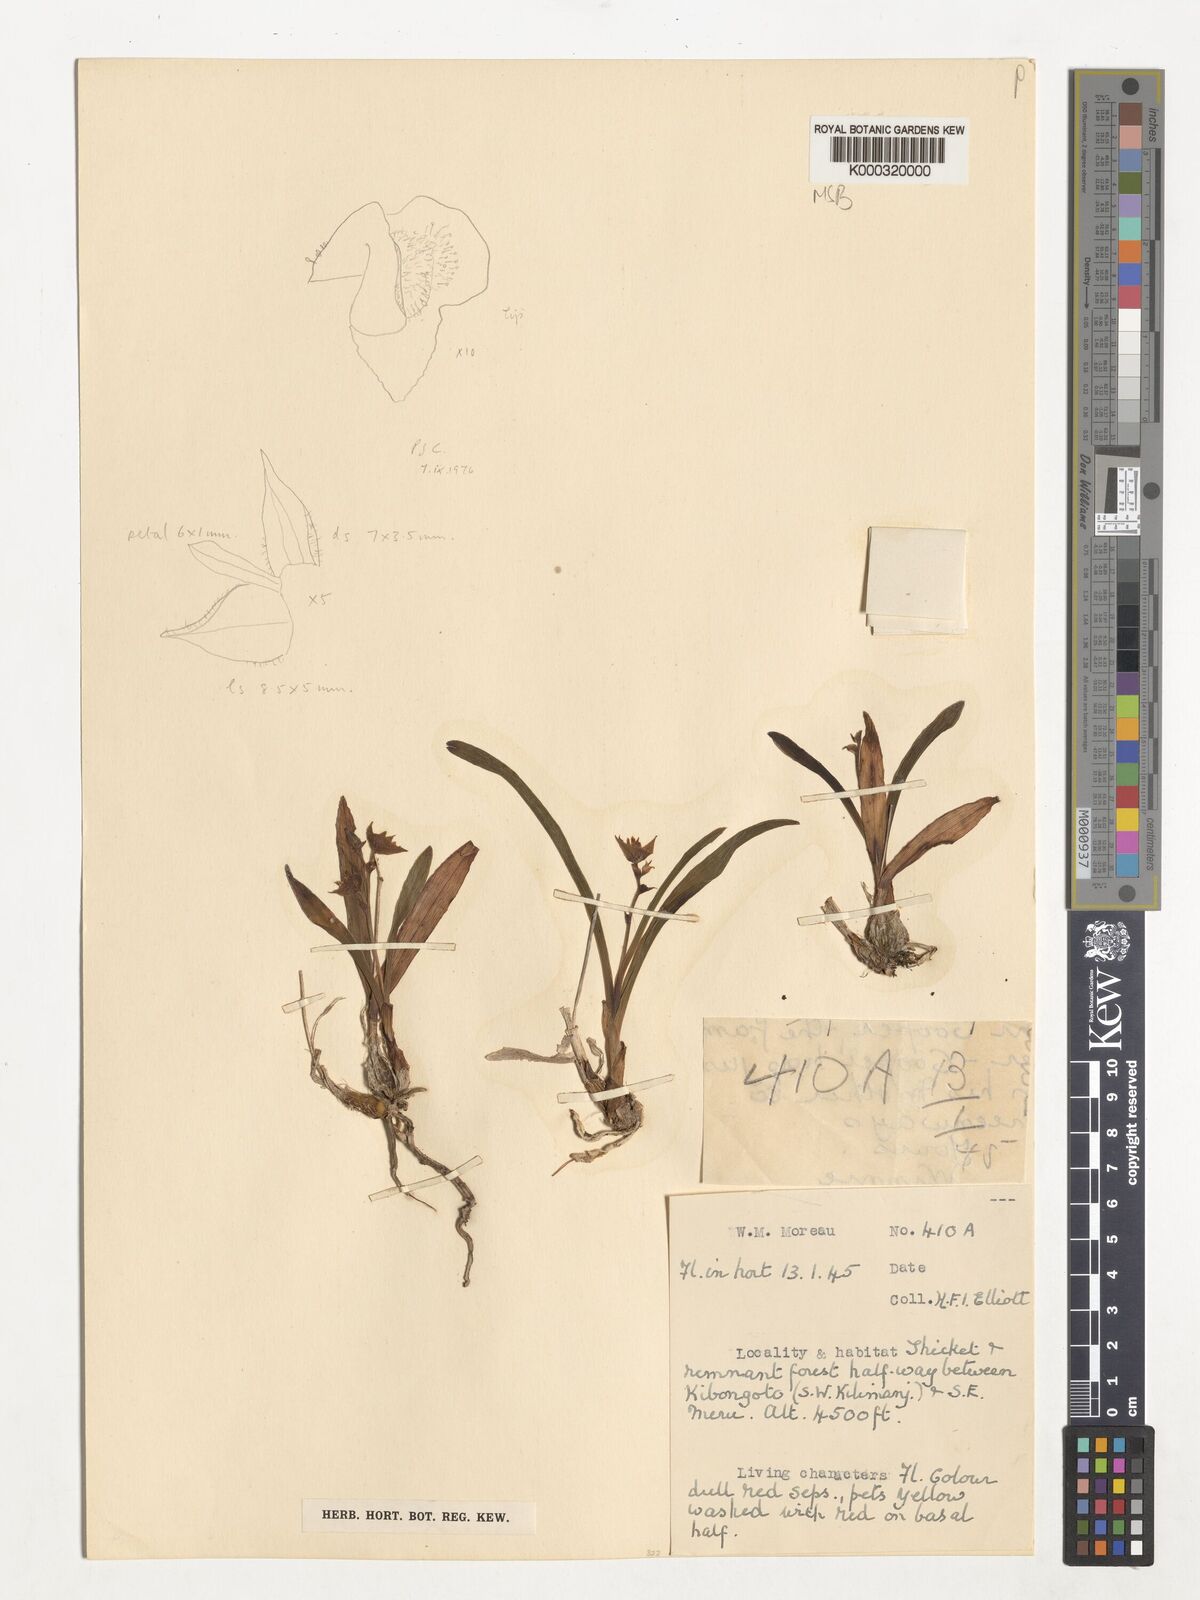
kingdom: Plantae
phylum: Tracheophyta
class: Liliopsida
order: Asparagales
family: Orchidaceae
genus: Polystachya
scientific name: Polystachya fischeri
